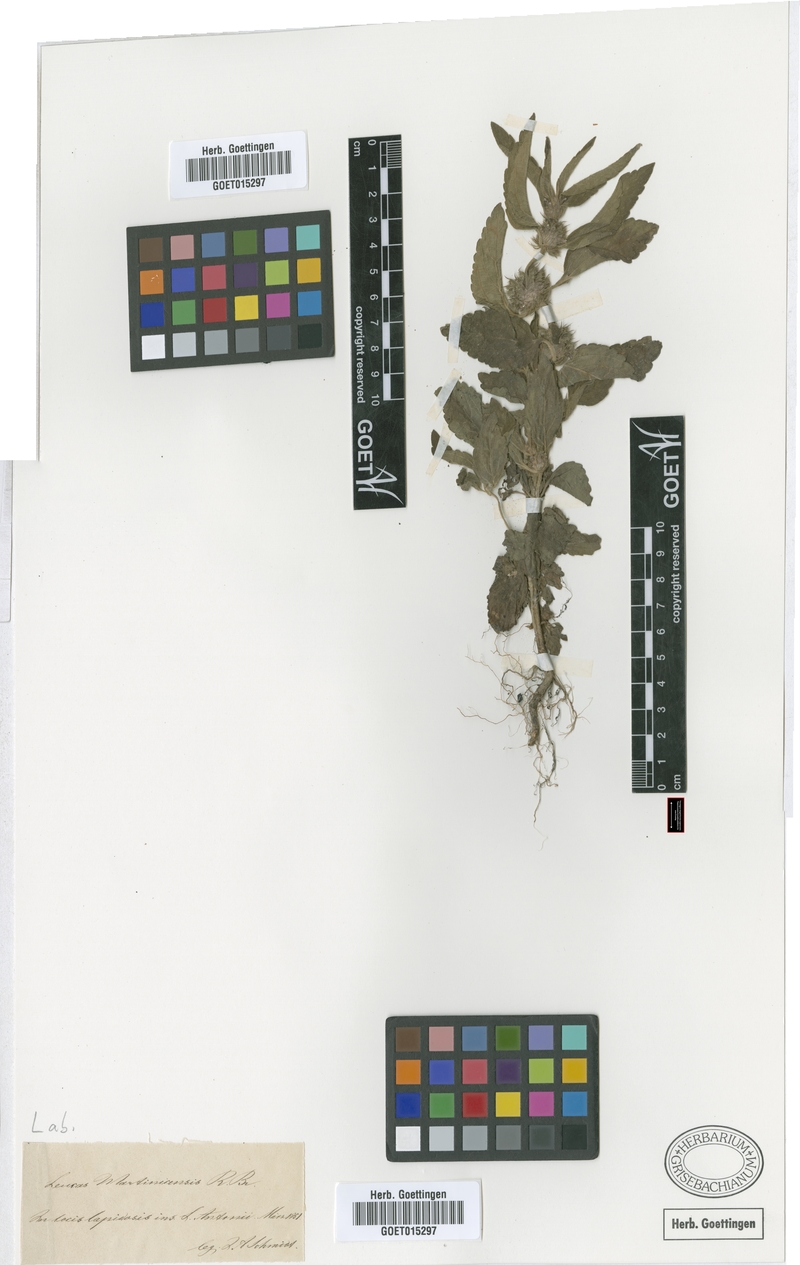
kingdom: Plantae
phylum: Tracheophyta
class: Magnoliopsida
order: Lamiales
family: Lamiaceae
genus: Leucas
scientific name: Leucas martinicensis
